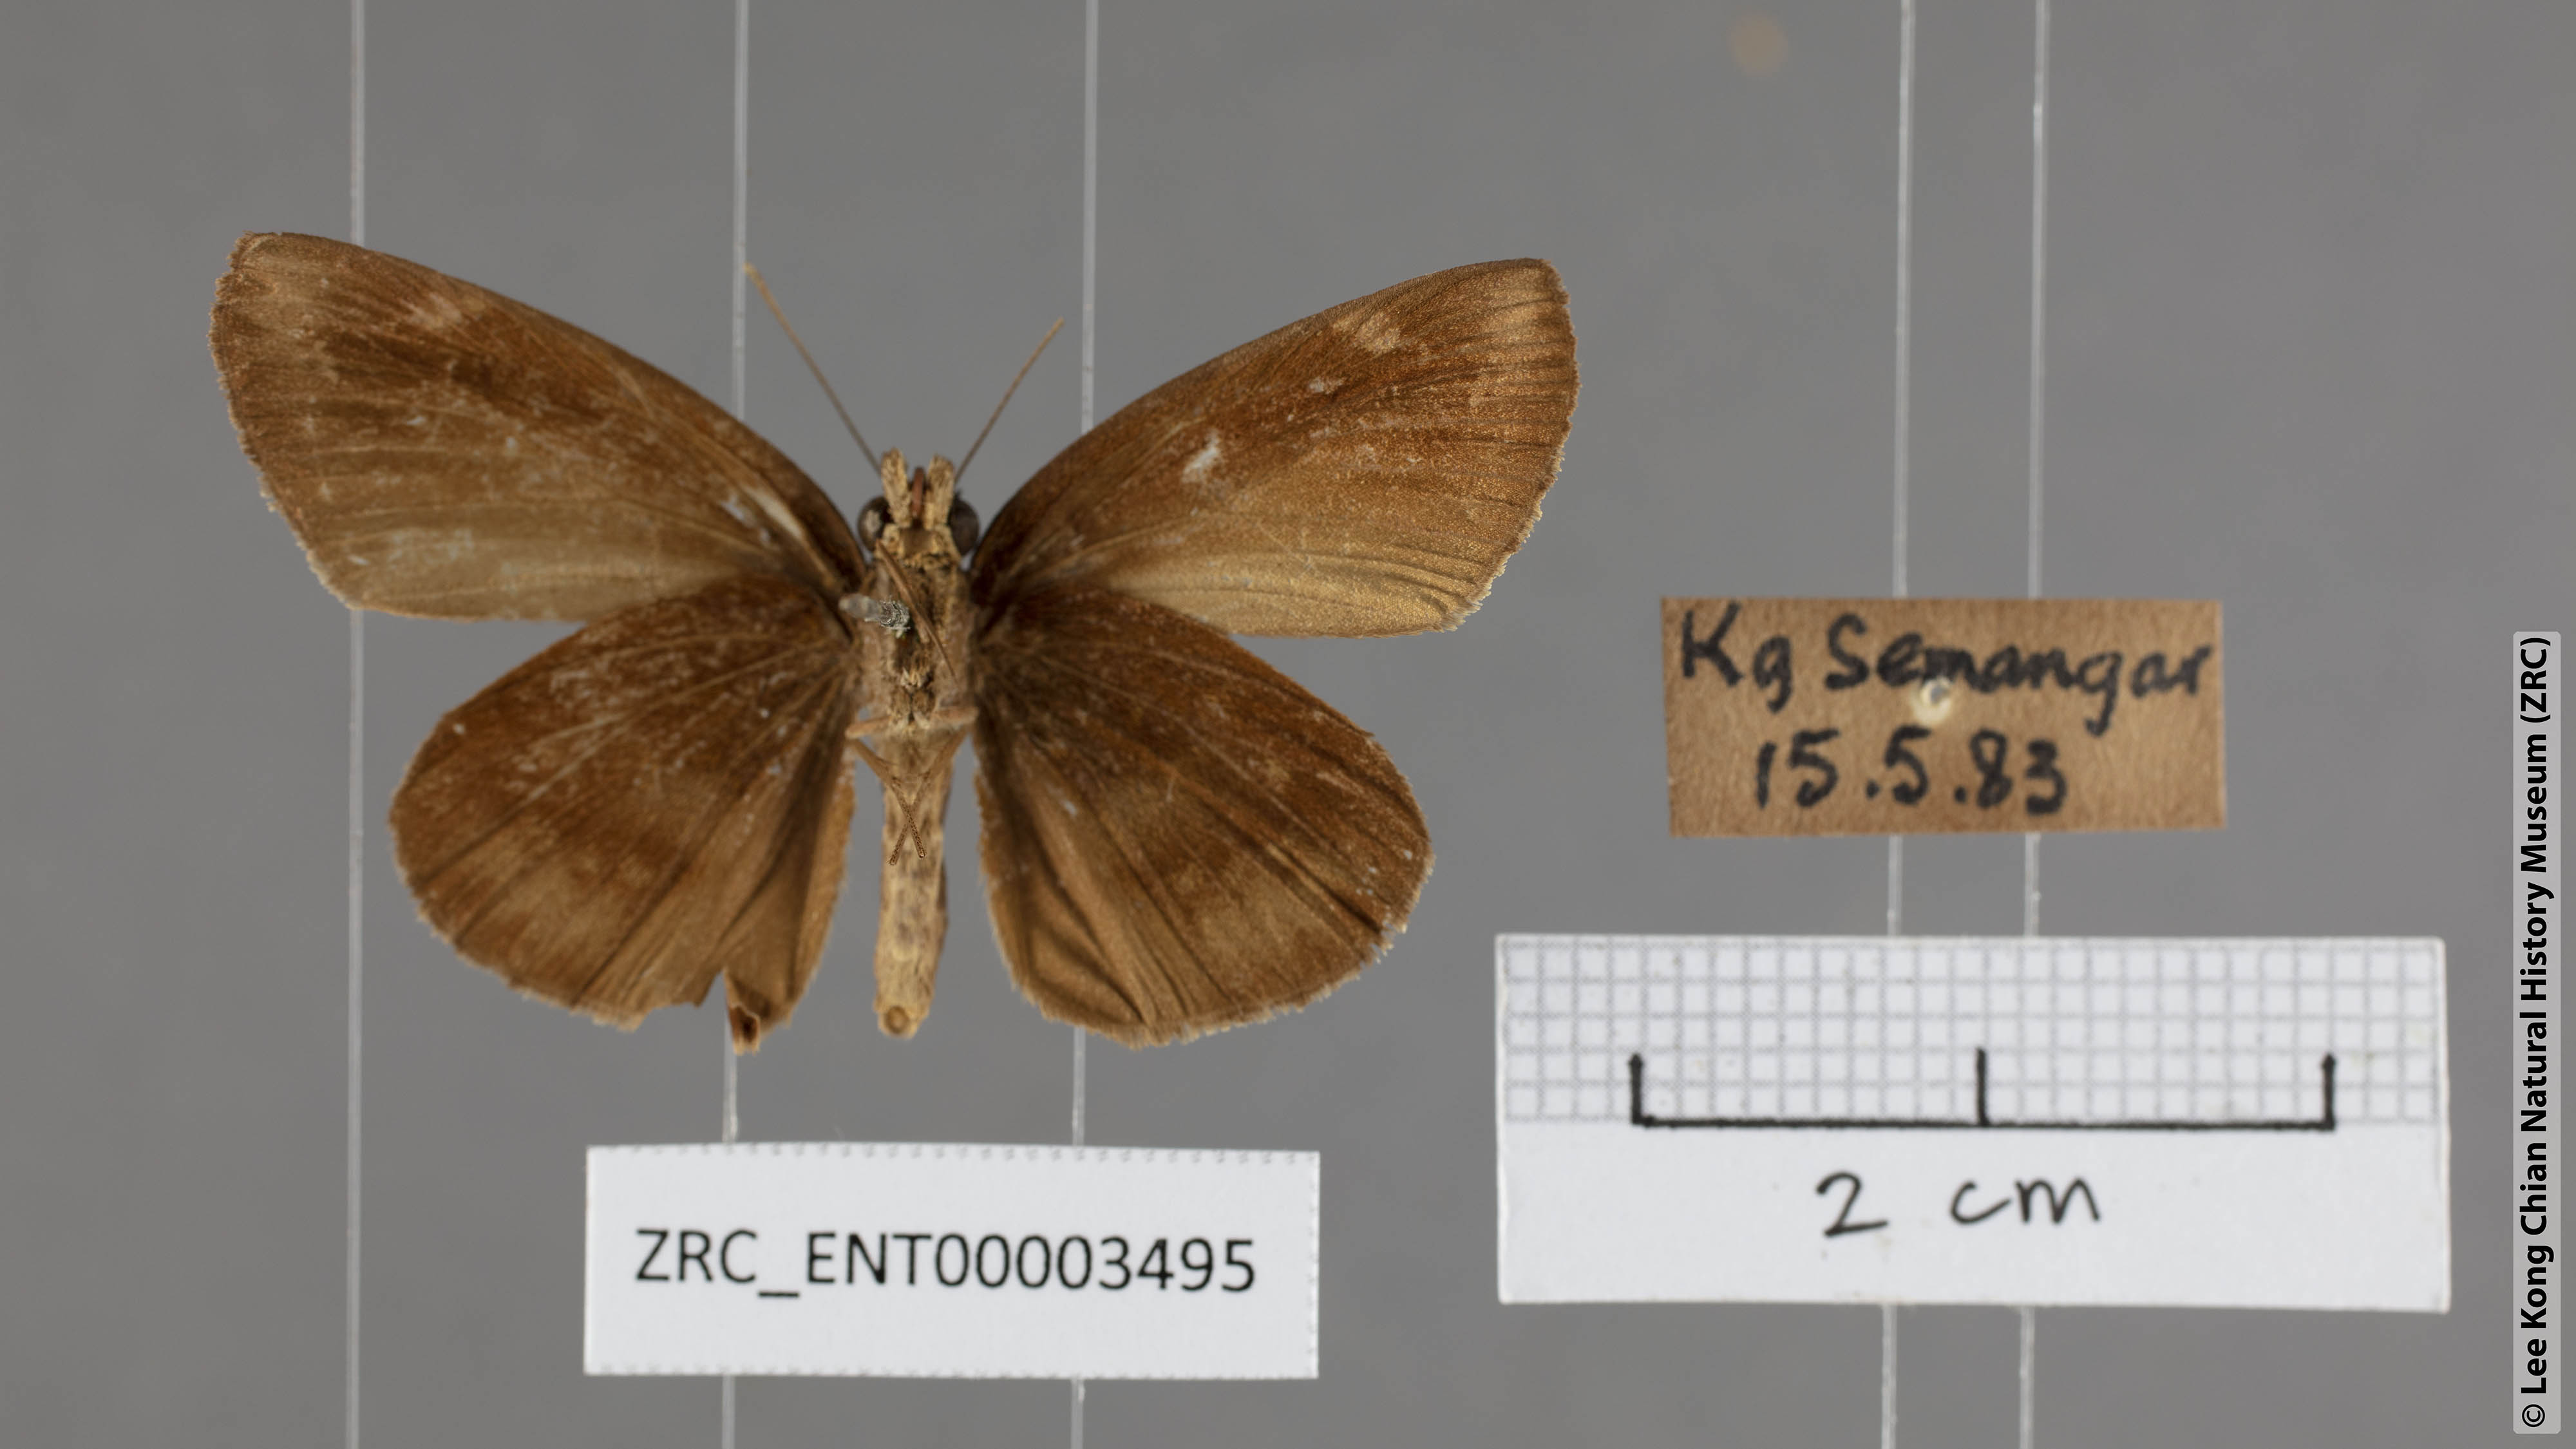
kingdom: Animalia
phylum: Arthropoda
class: Insecta
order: Lepidoptera
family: Hesperiidae
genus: Psolos
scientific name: Psolos fuligo
